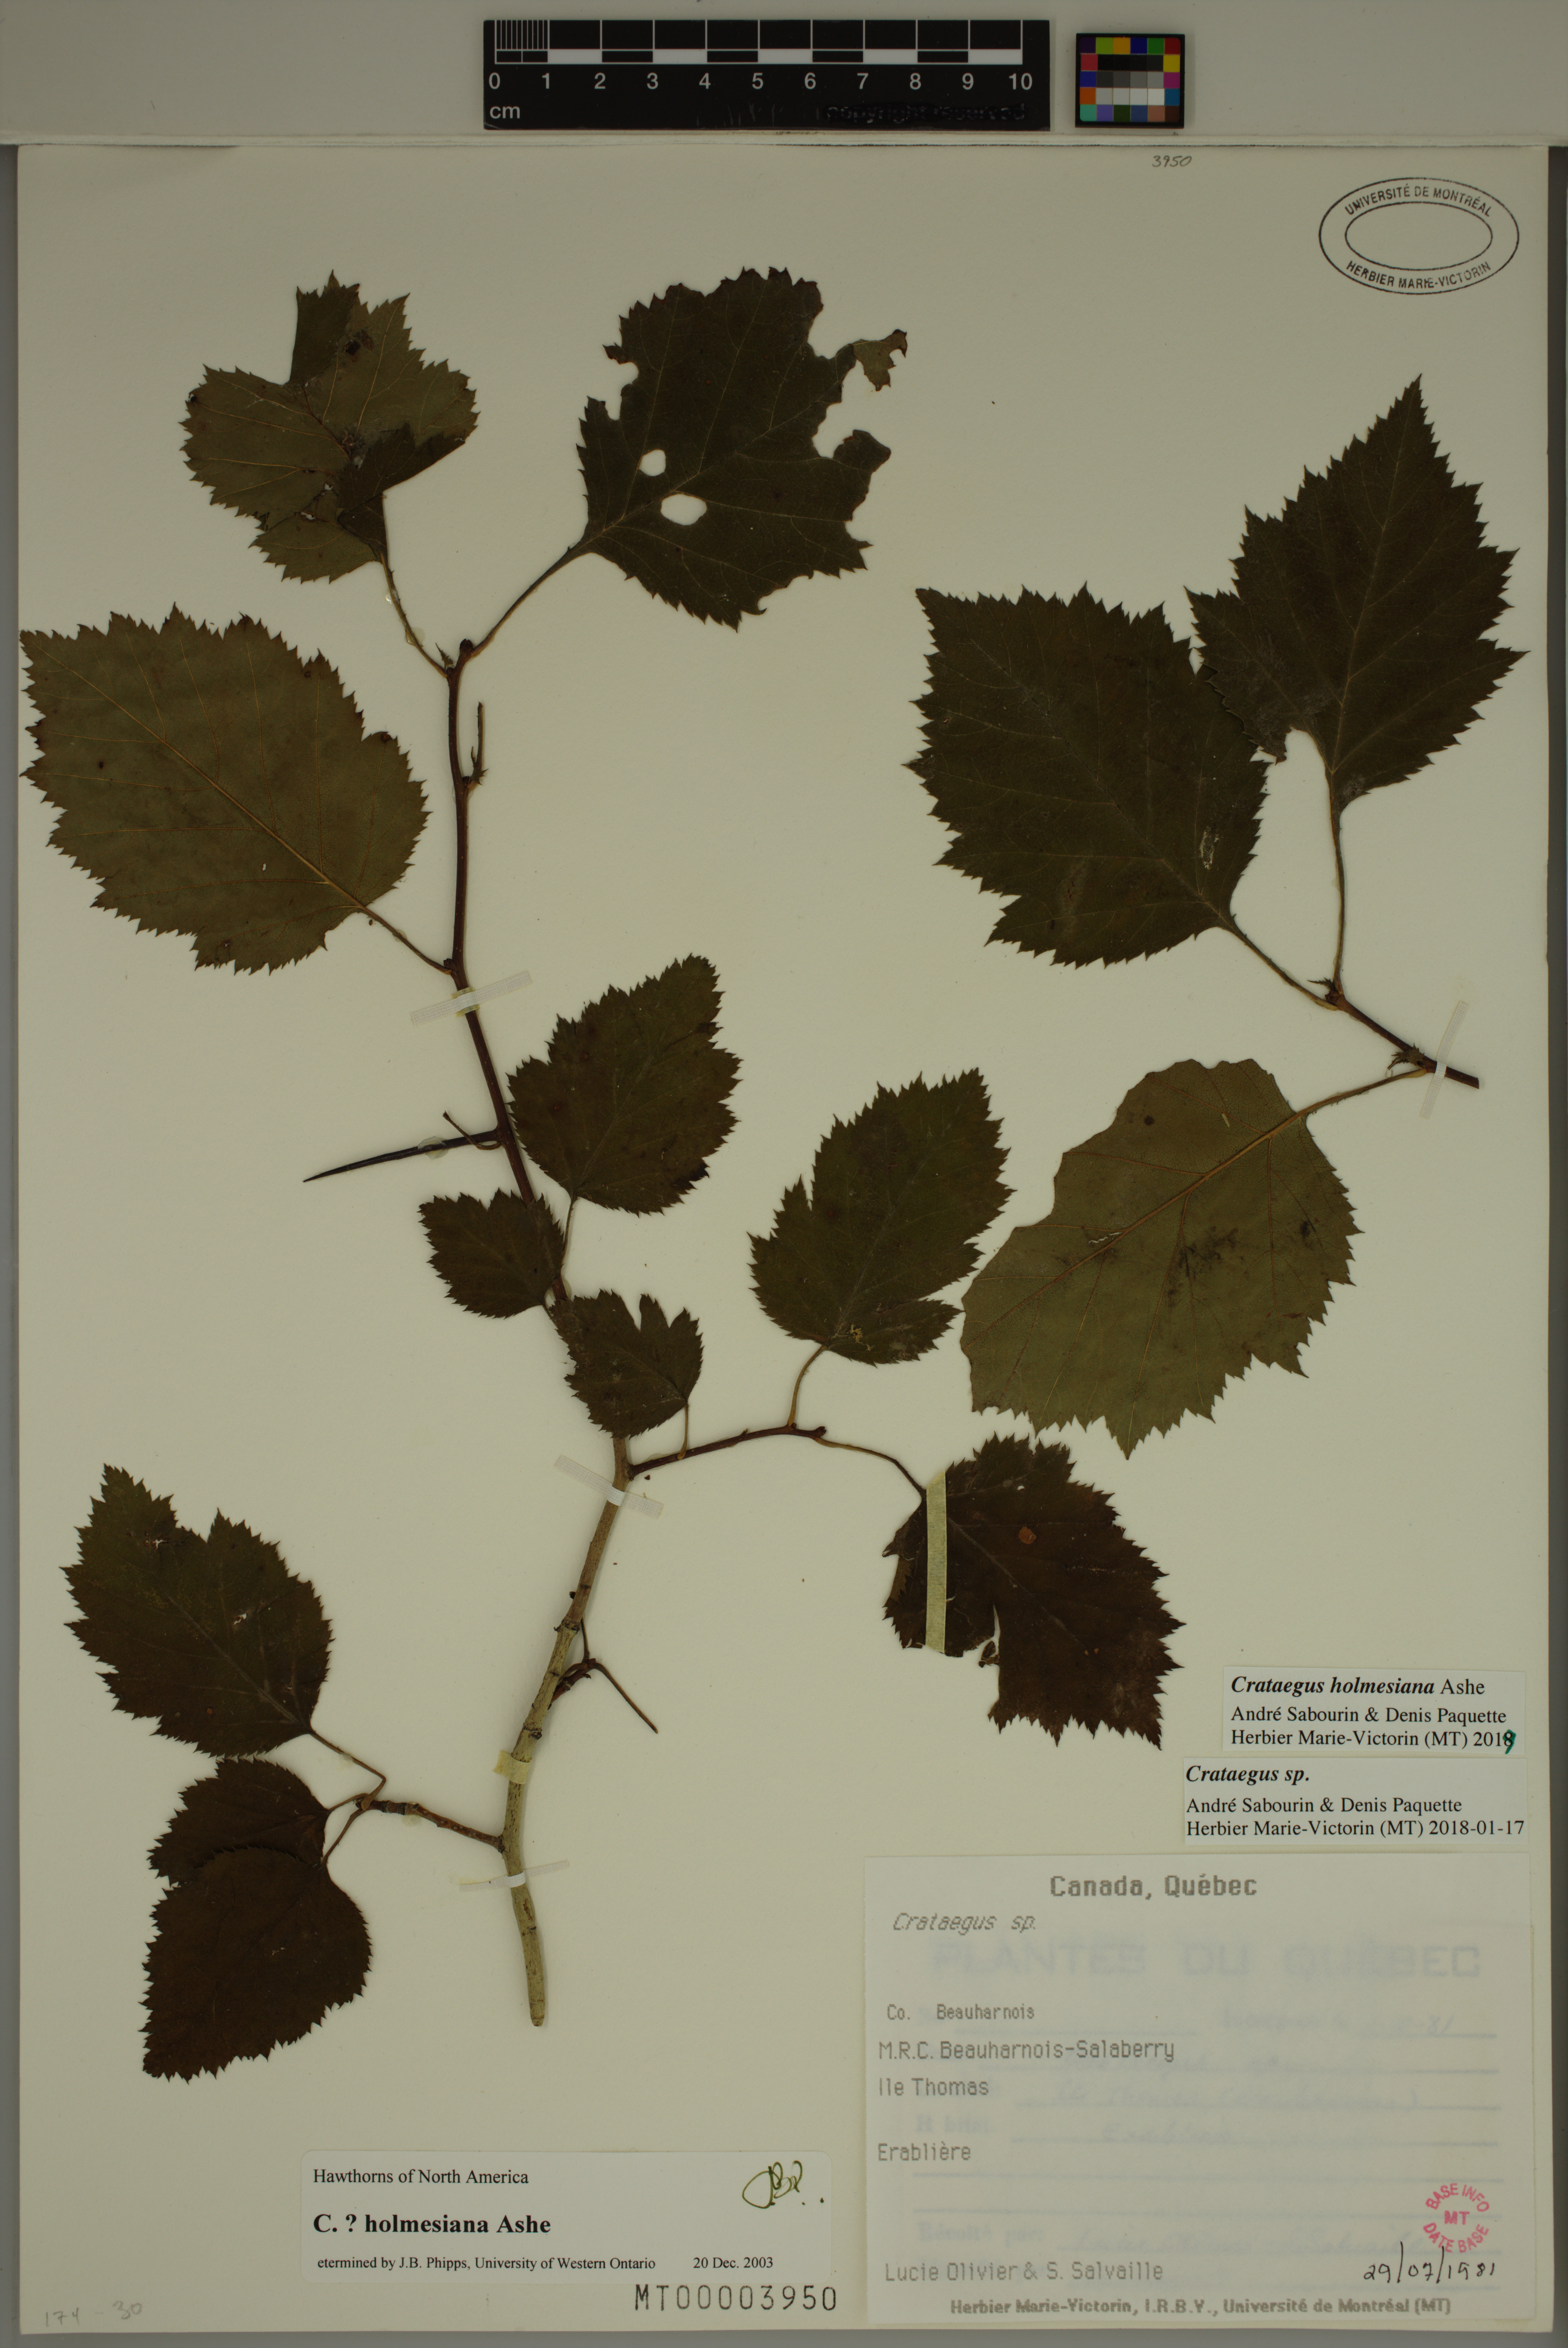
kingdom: Plantae
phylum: Tracheophyta
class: Magnoliopsida
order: Rosales
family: Rosaceae
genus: Crataegus
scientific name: Crataegus holmesiana
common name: Holmes' hawthorn
